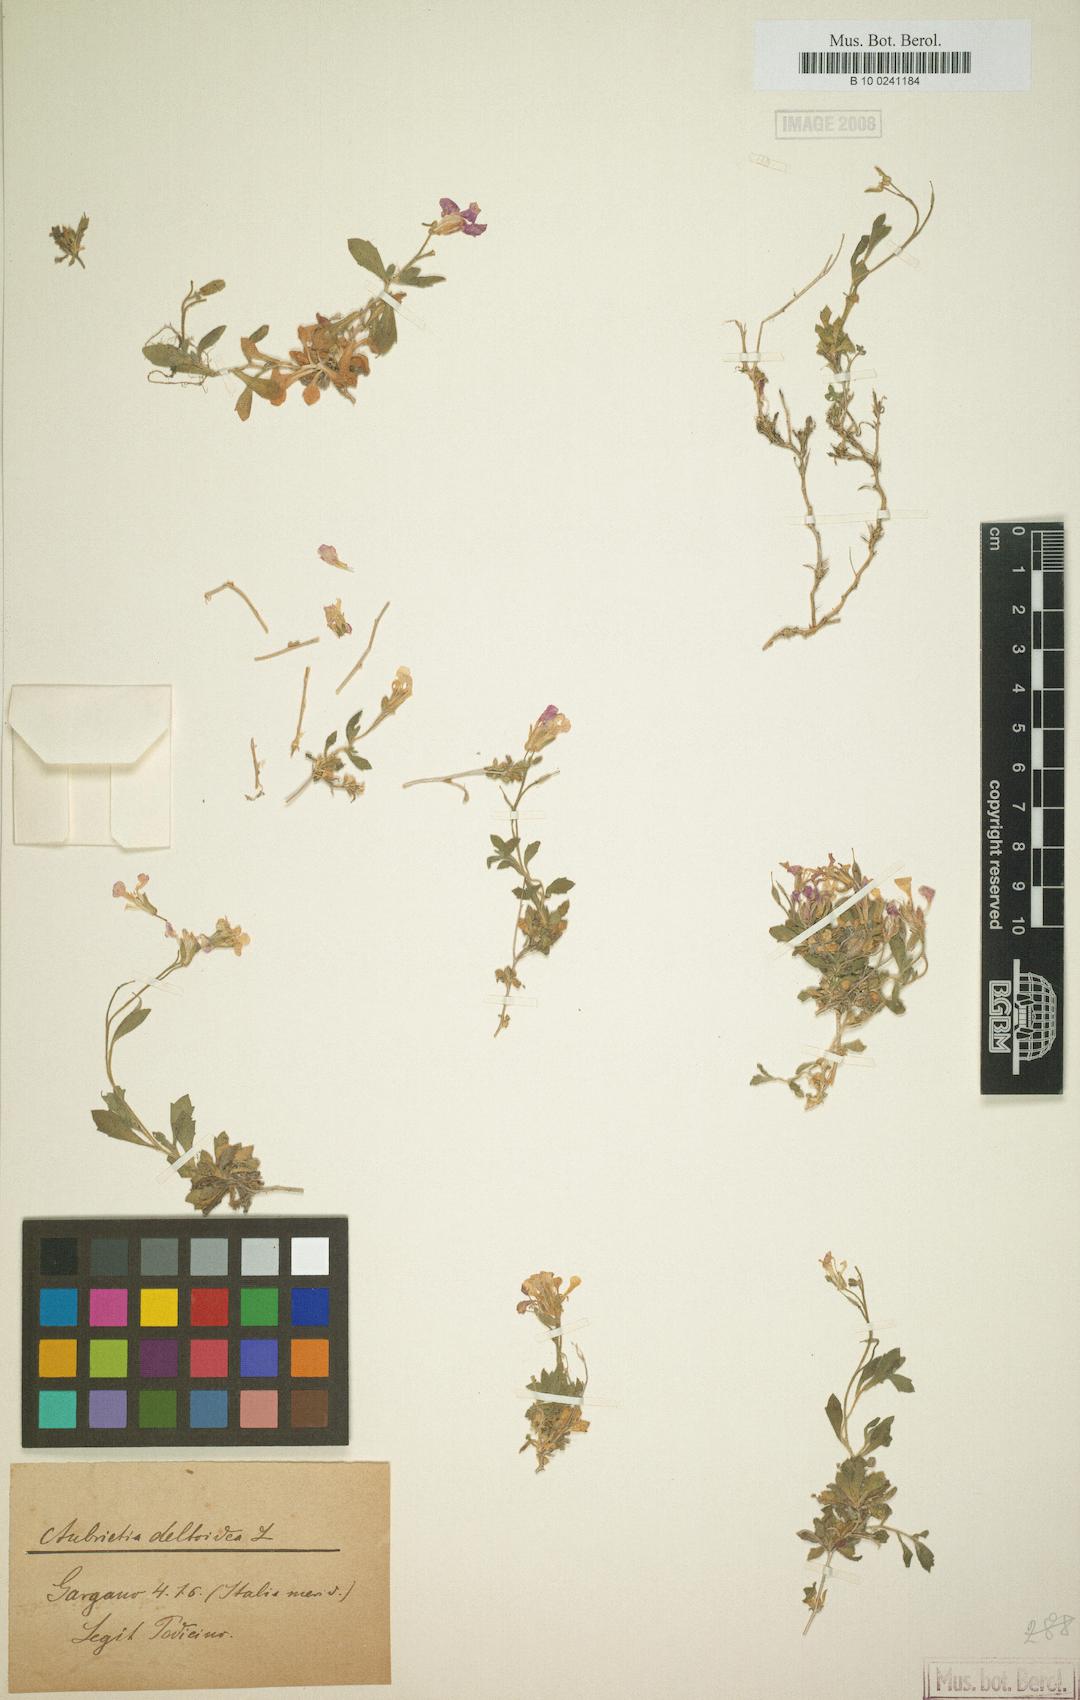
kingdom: Plantae
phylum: Tracheophyta
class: Magnoliopsida
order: Brassicales
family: Brassicaceae
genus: Aubrieta
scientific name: Aubrieta columnae
